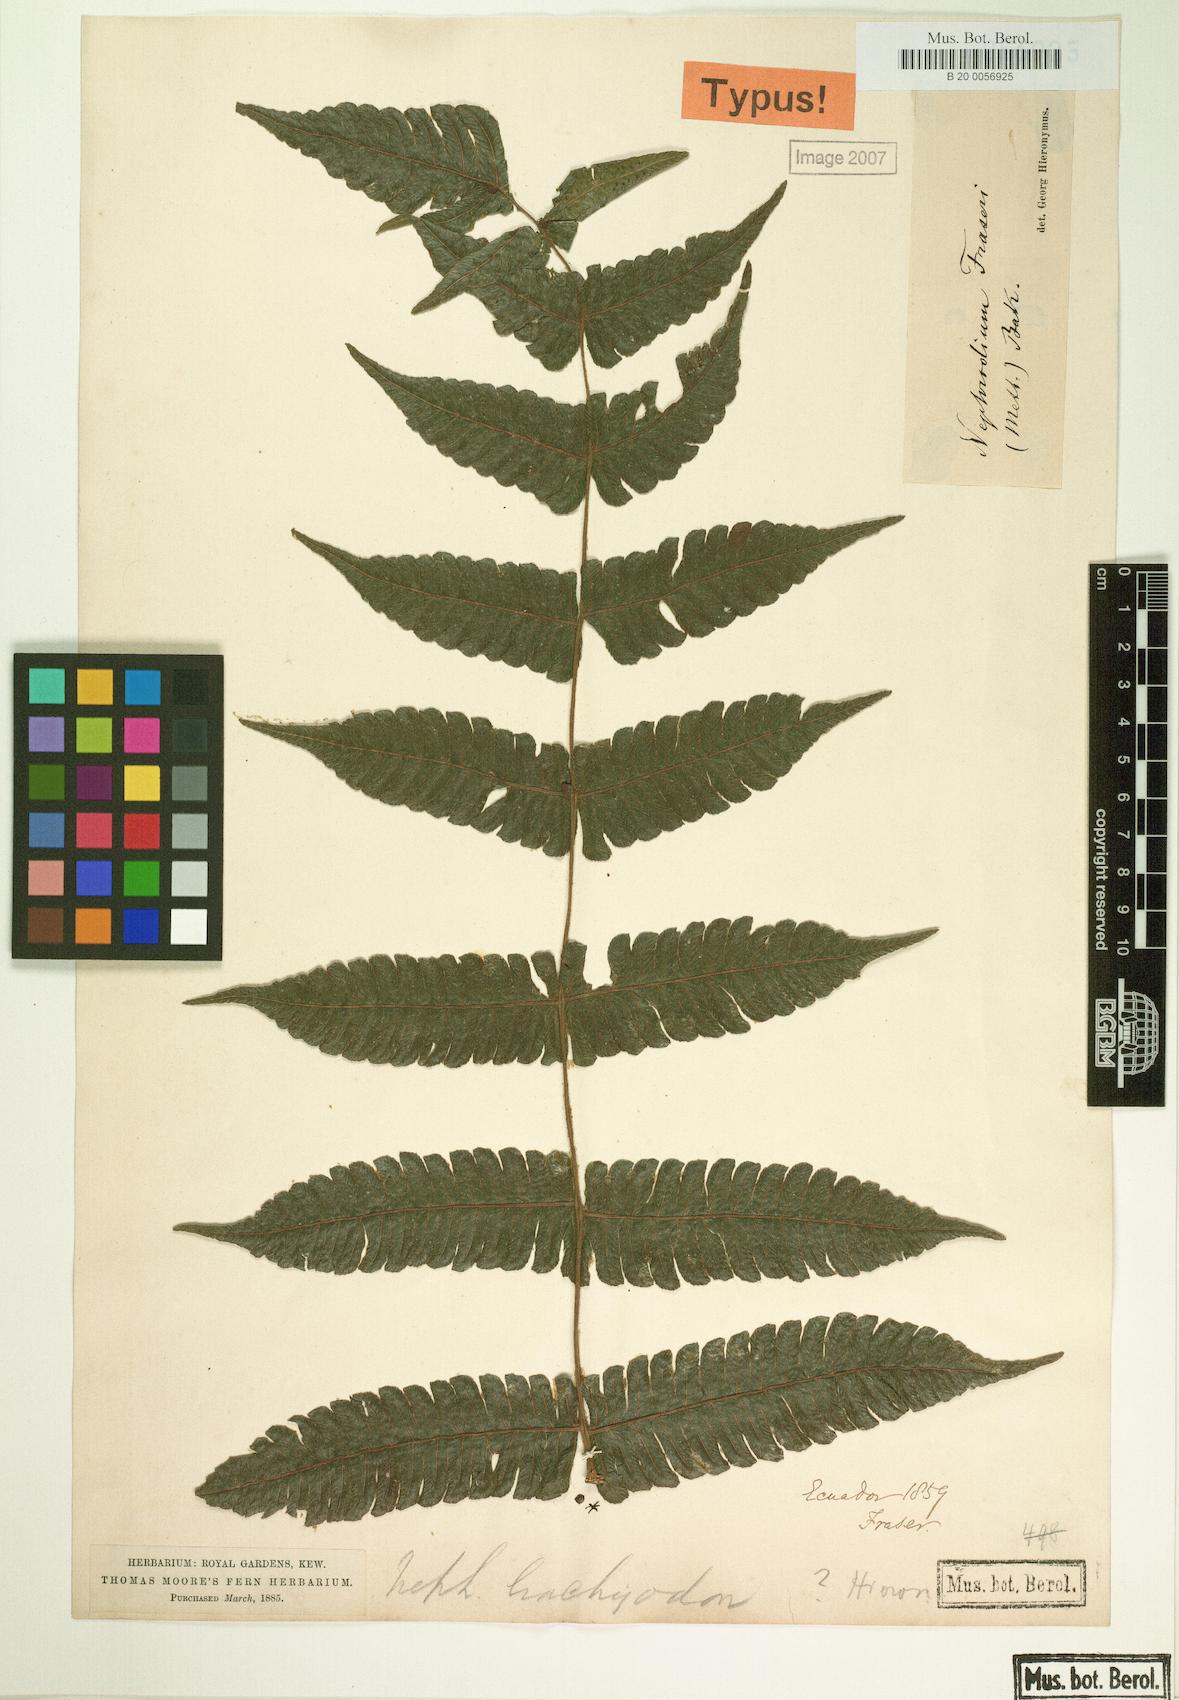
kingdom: Plantae
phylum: Tracheophyta
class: Polypodiopsida
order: Polypodiales
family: Thelypteridaceae
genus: Goniopteris
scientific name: Goniopteris fraseri
